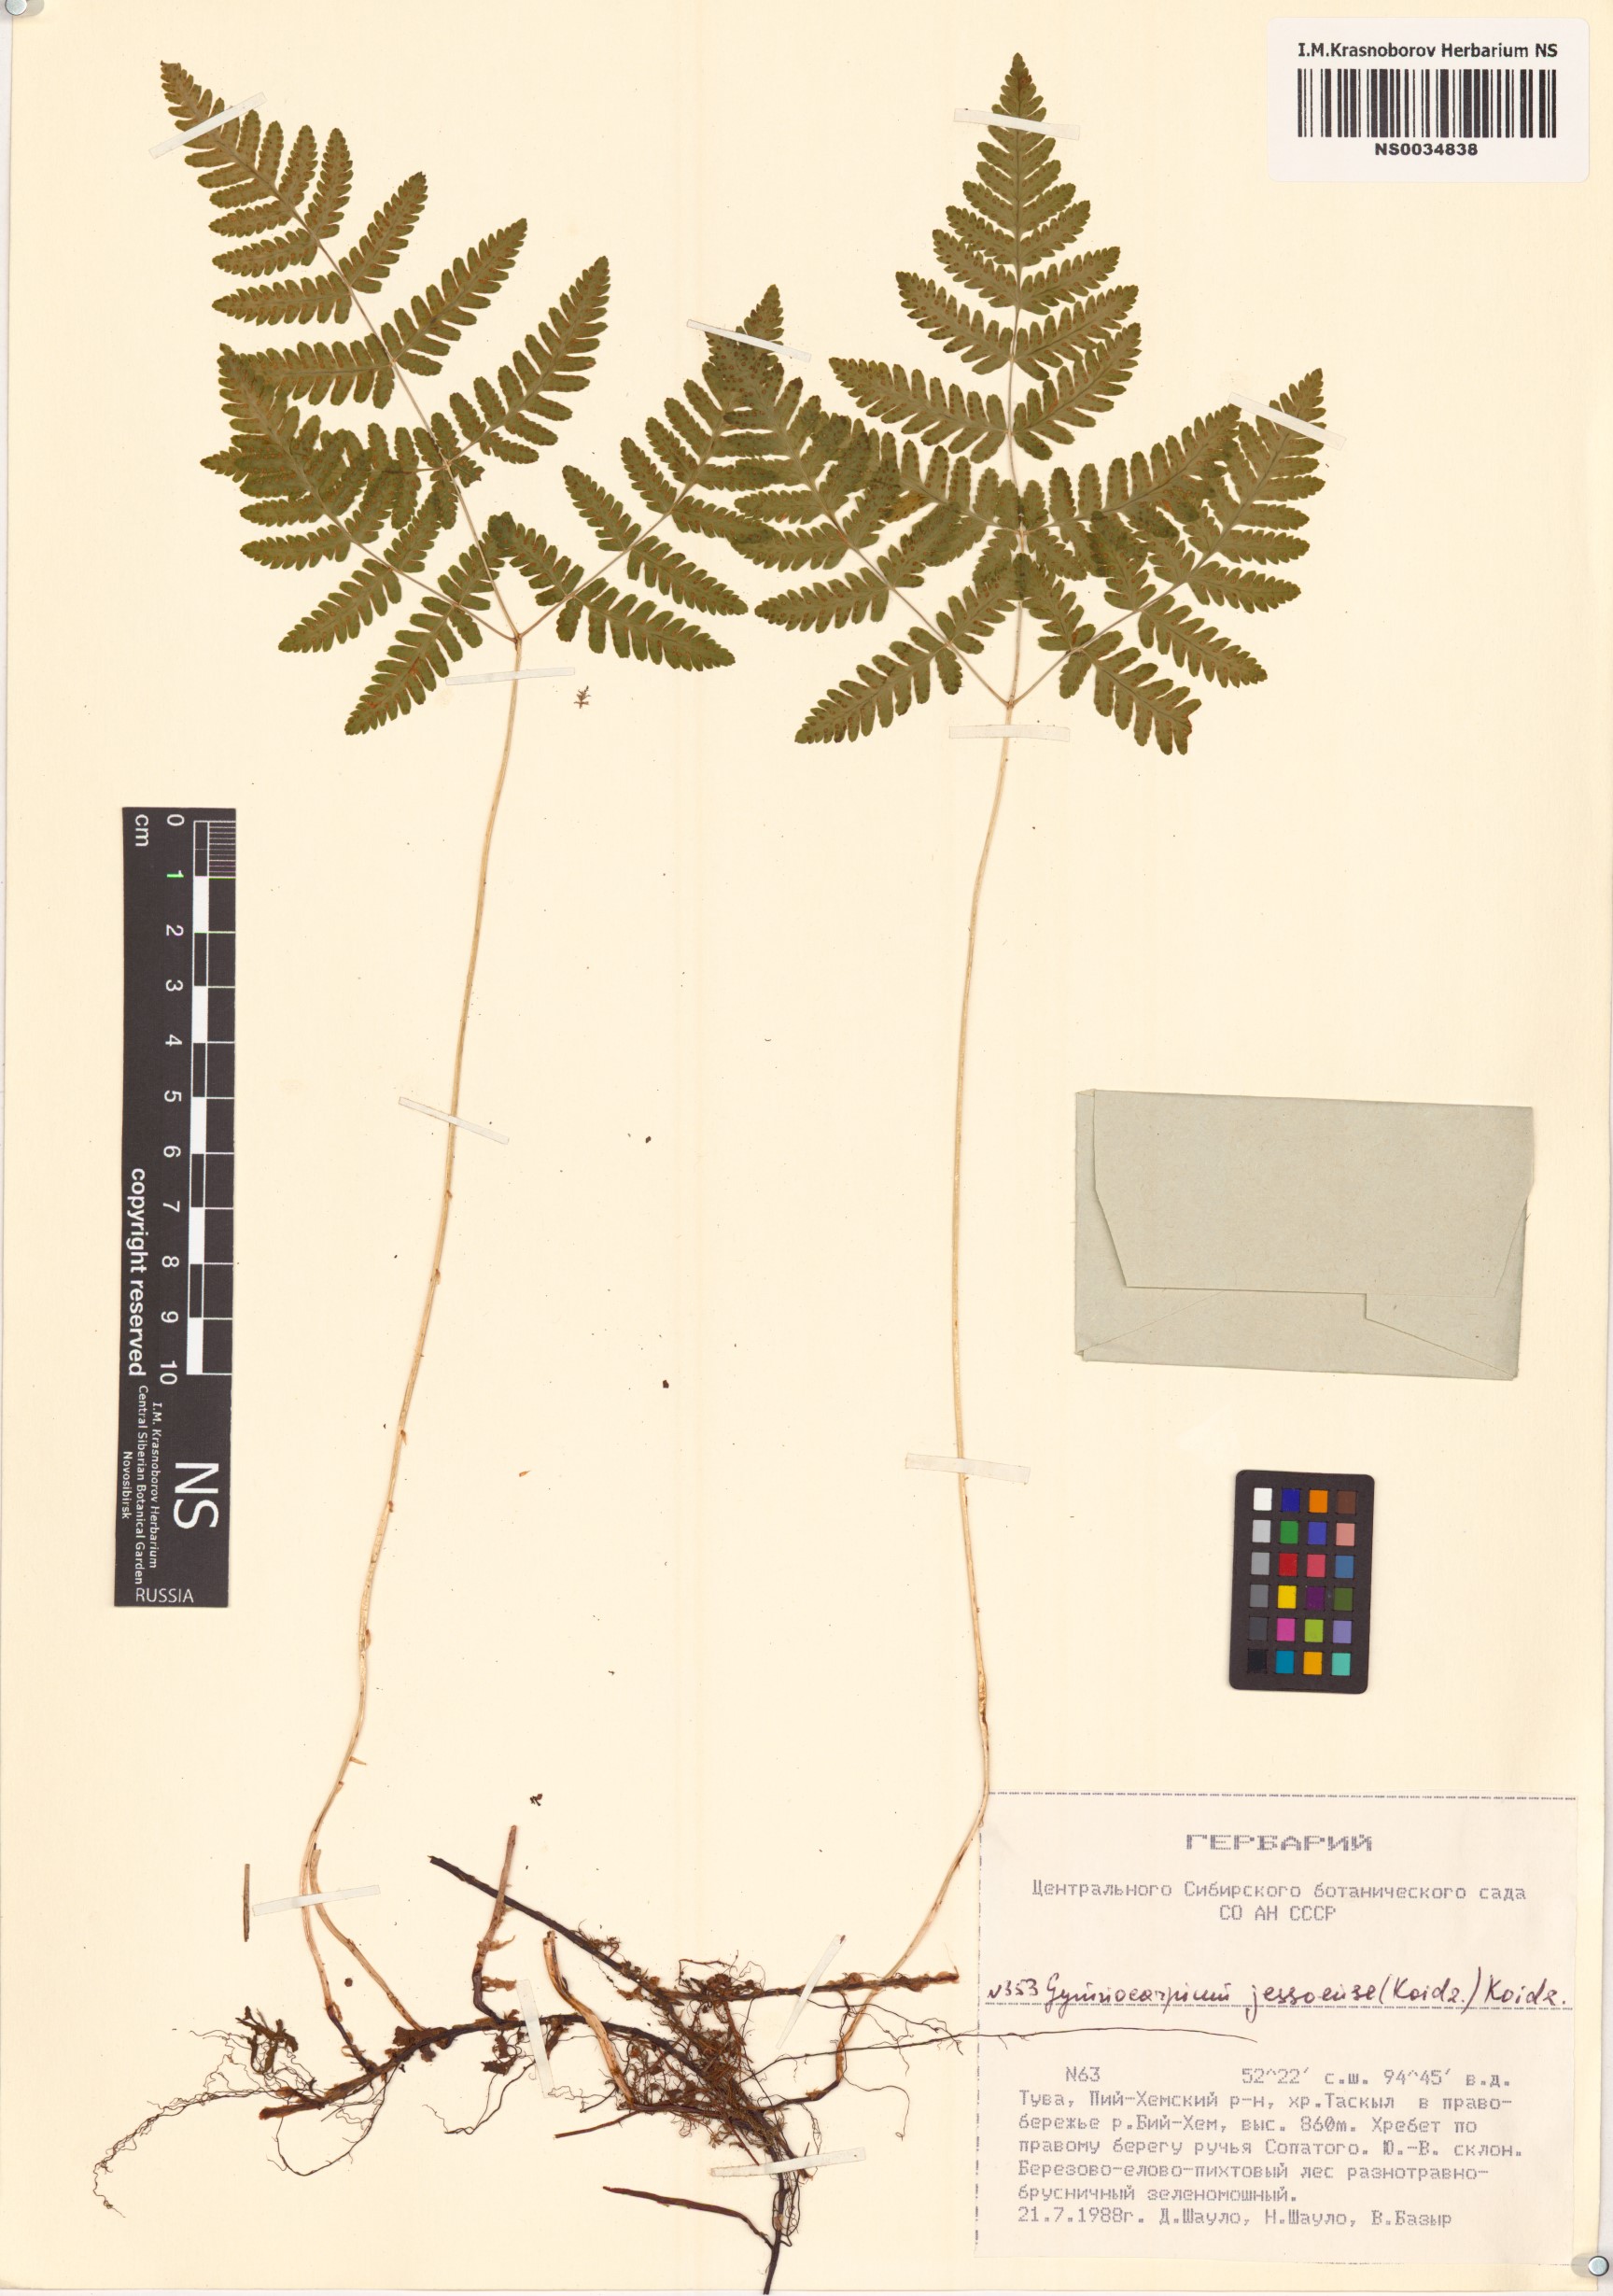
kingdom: Plantae
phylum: Tracheophyta
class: Polypodiopsida
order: Polypodiales
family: Cystopteridaceae
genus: Gymnocarpium
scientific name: Gymnocarpium jessoense
